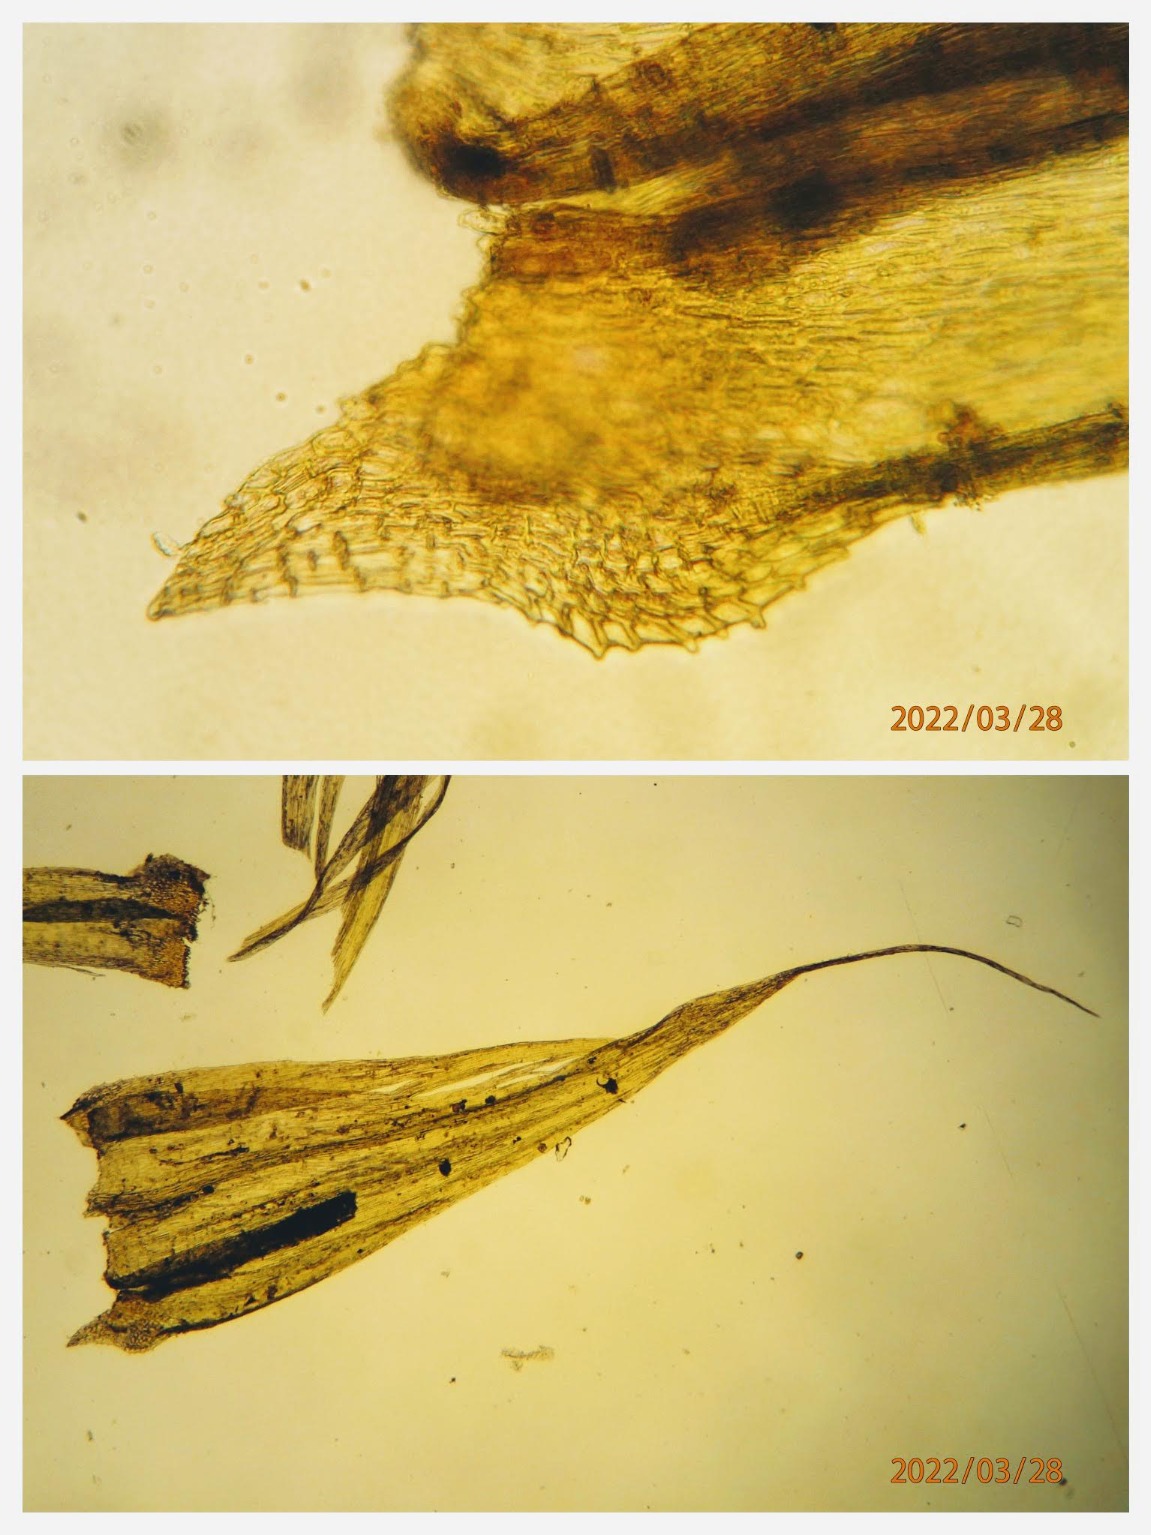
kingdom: Plantae
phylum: Bryophyta
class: Bryopsida
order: Hypnales
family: Brachytheciaceae
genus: Homalothecium
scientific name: Homalothecium sericeum
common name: Krybende silkemos
